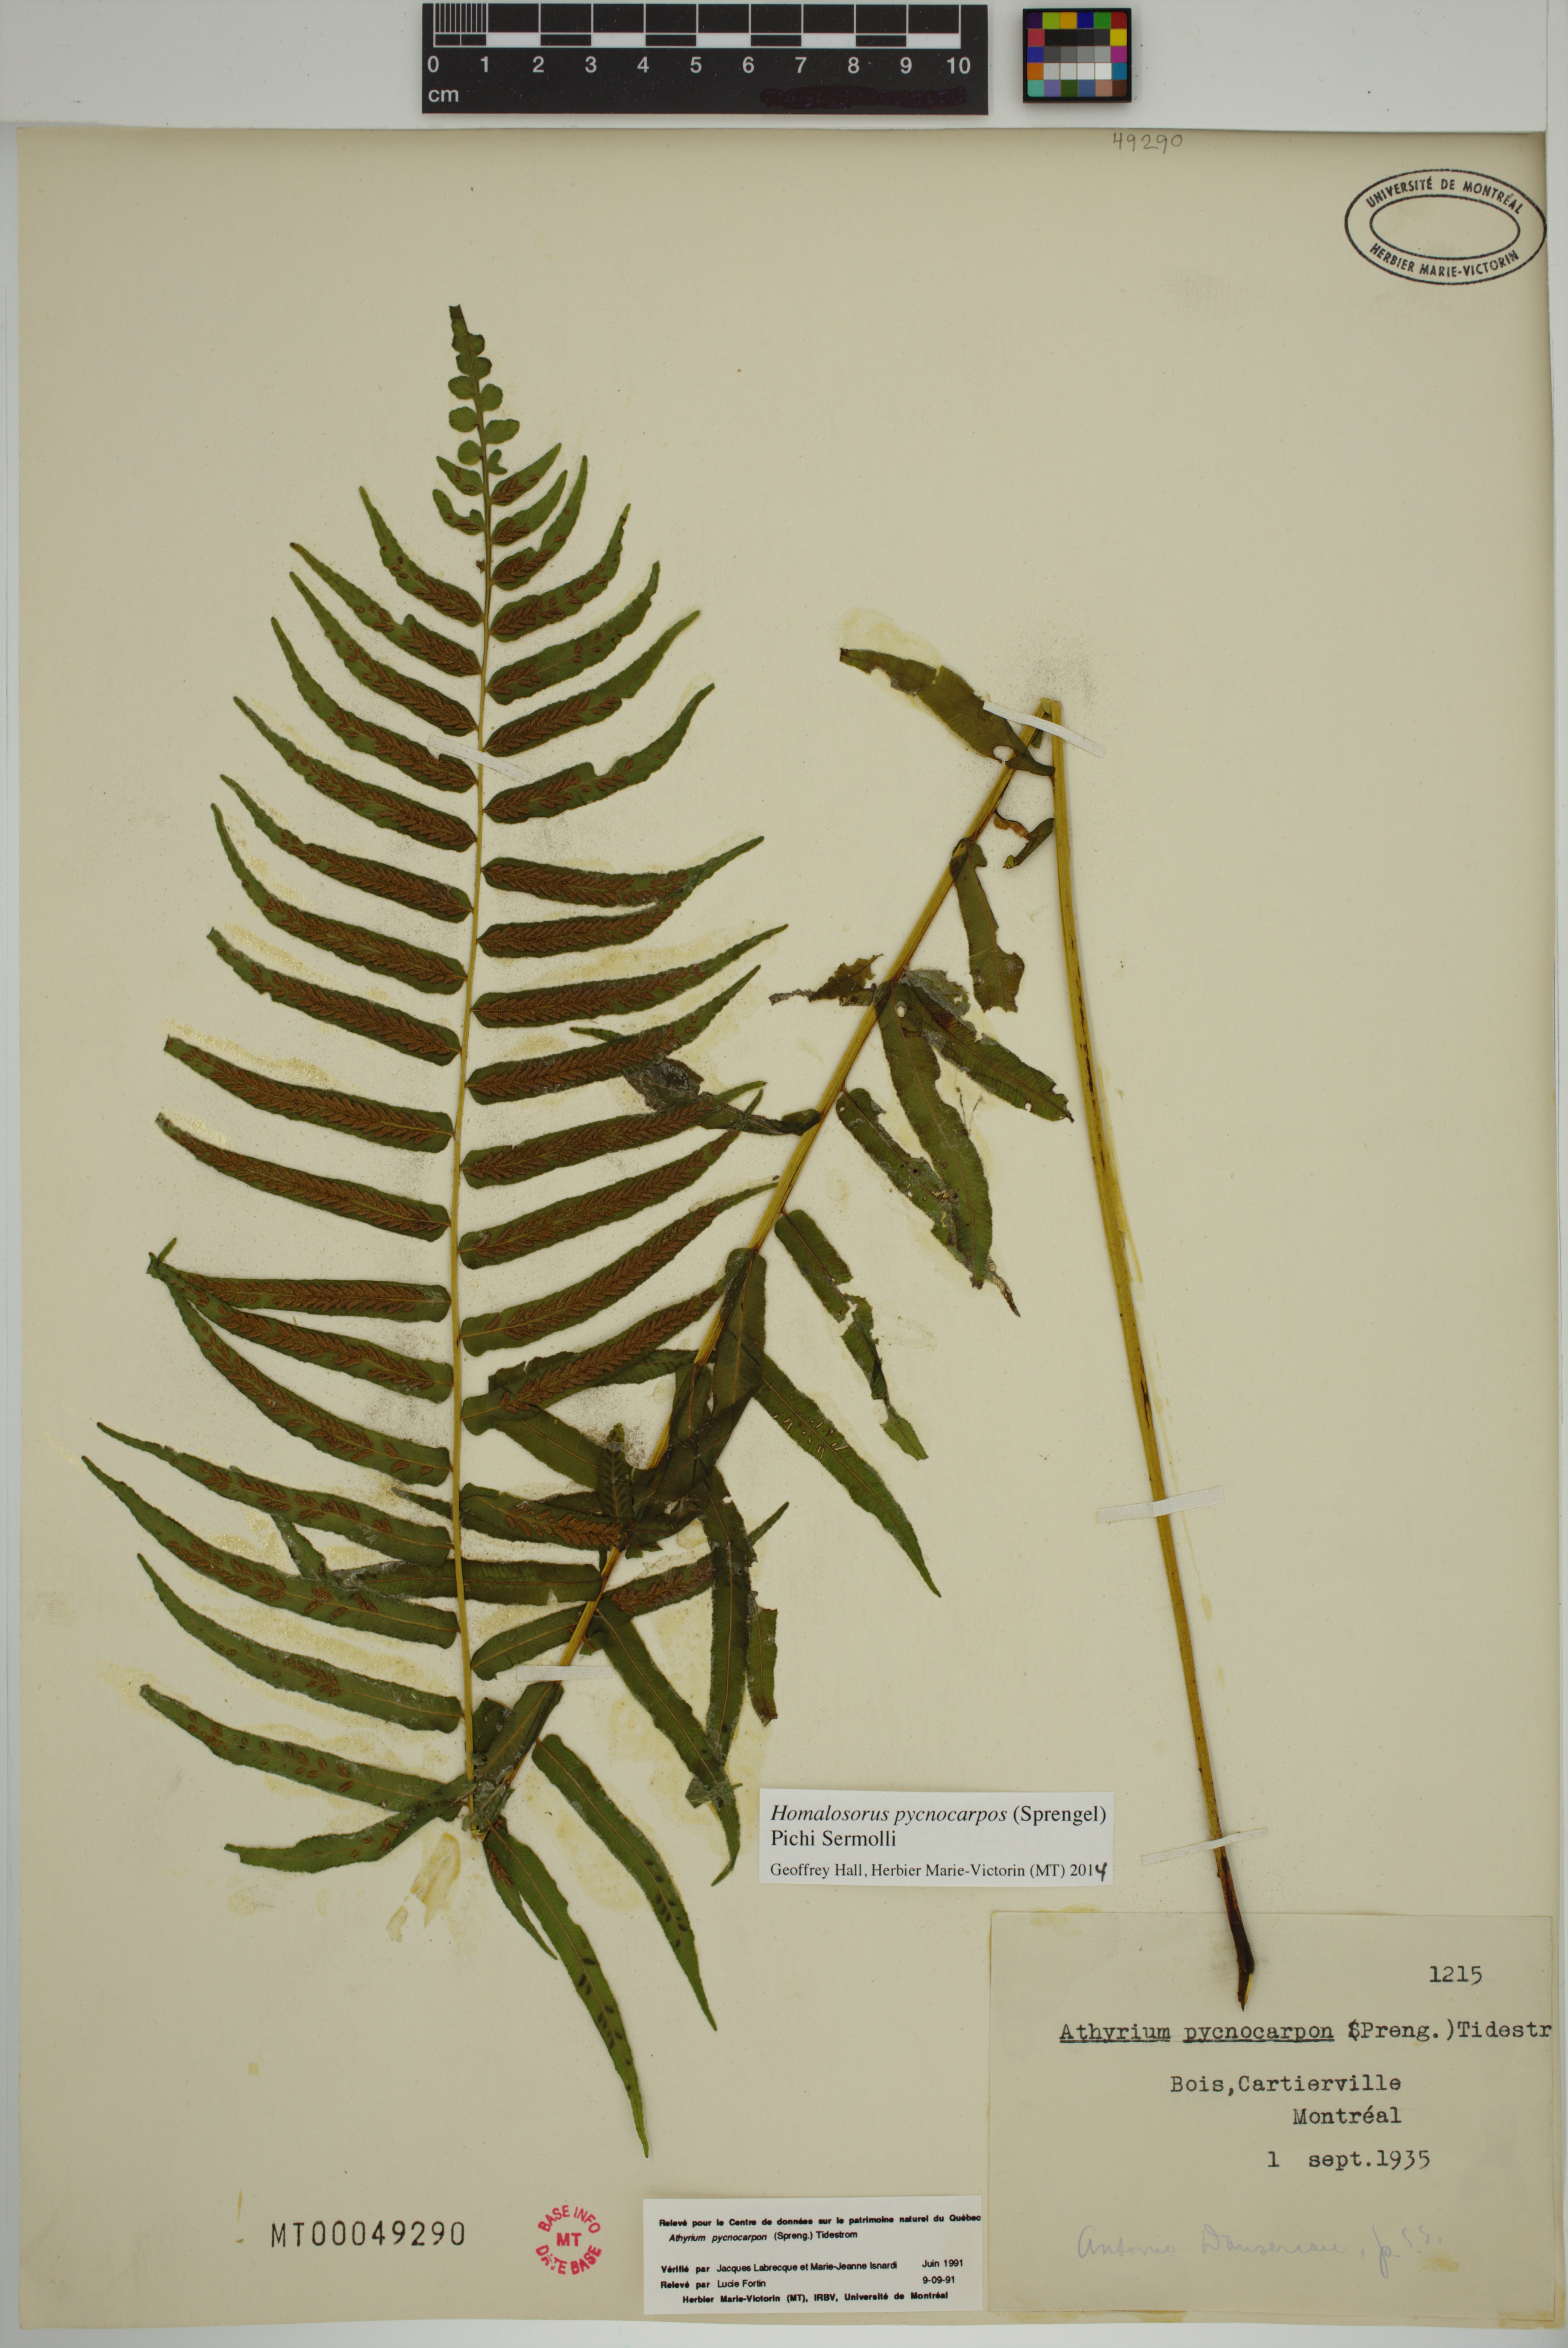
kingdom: Plantae
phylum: Tracheophyta
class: Polypodiopsida
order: Polypodiales
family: Diplaziopsidaceae
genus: Homalosorus
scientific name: Homalosorus pycnocarpos
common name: Glade fern
